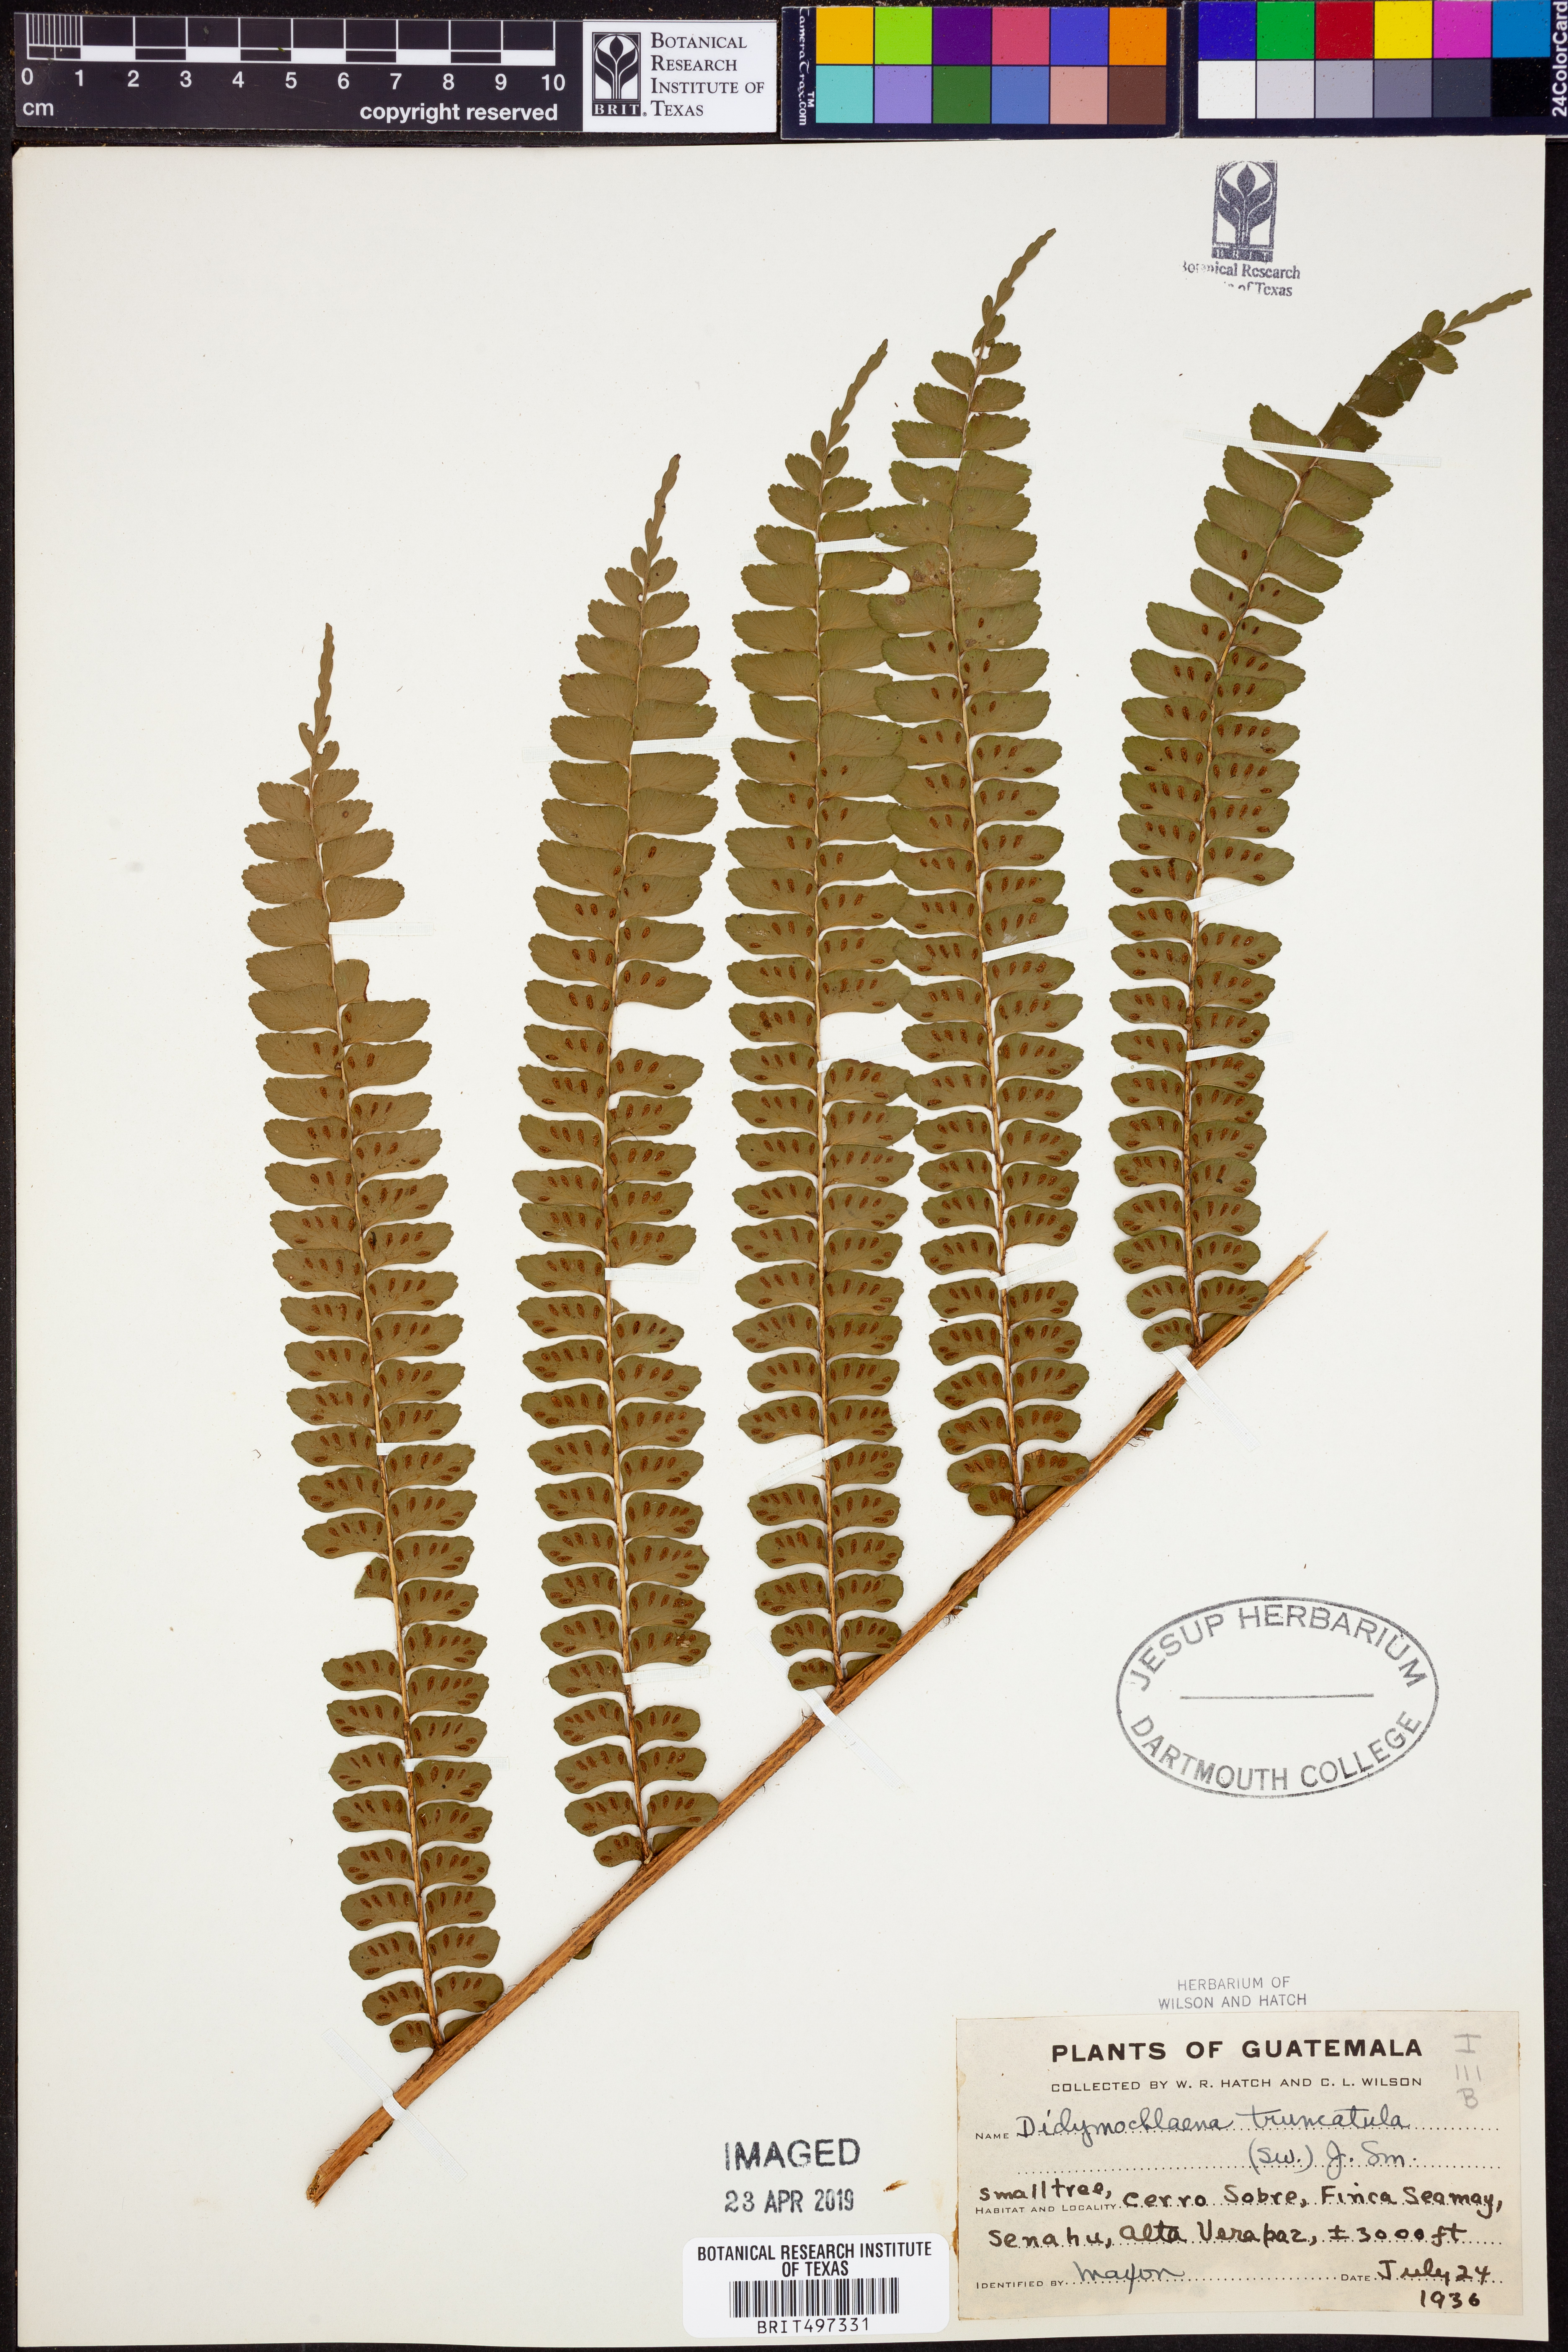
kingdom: Plantae
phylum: Tracheophyta
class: Polypodiopsida
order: Polypodiales
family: Didymochlaenaceae
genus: Didymochlaena
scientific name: Didymochlaena truncatula
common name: Mahogany fern
